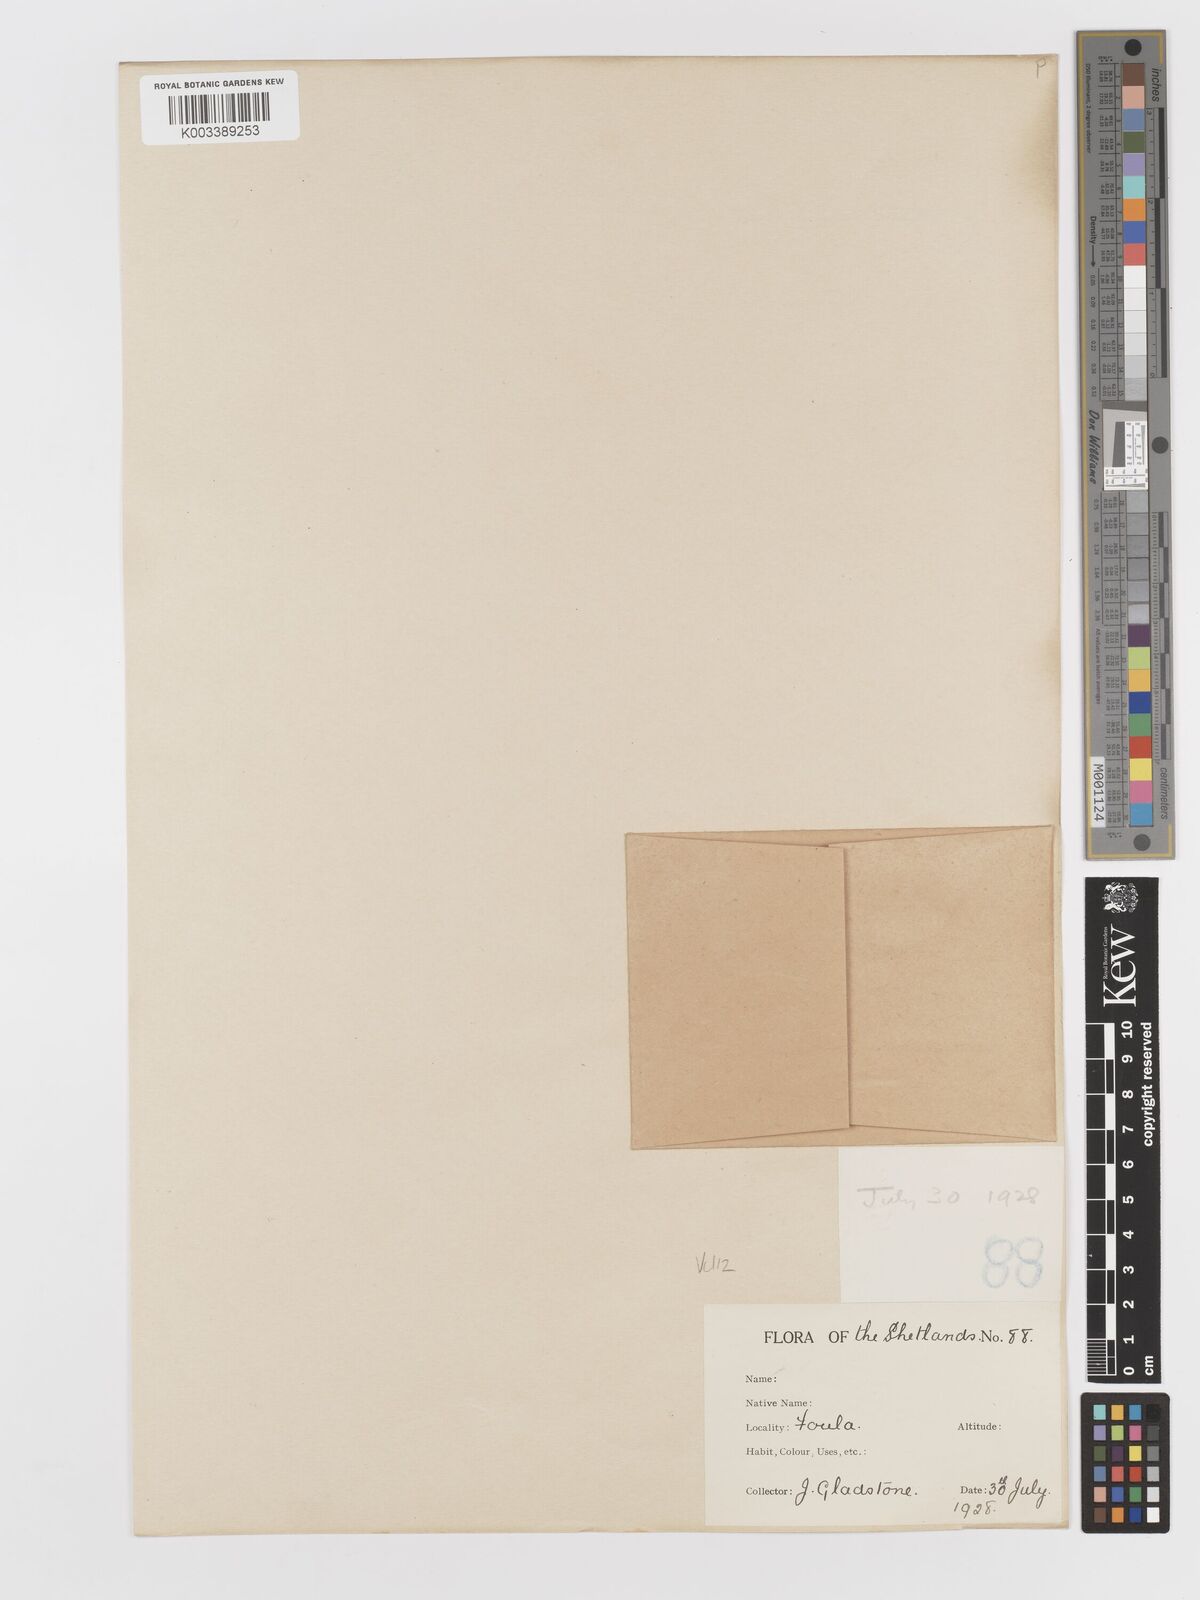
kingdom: Plantae
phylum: Tracheophyta
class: Liliopsida
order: Poales
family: Poaceae
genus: Aira
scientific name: Aira praecox
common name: Early hair-grass
